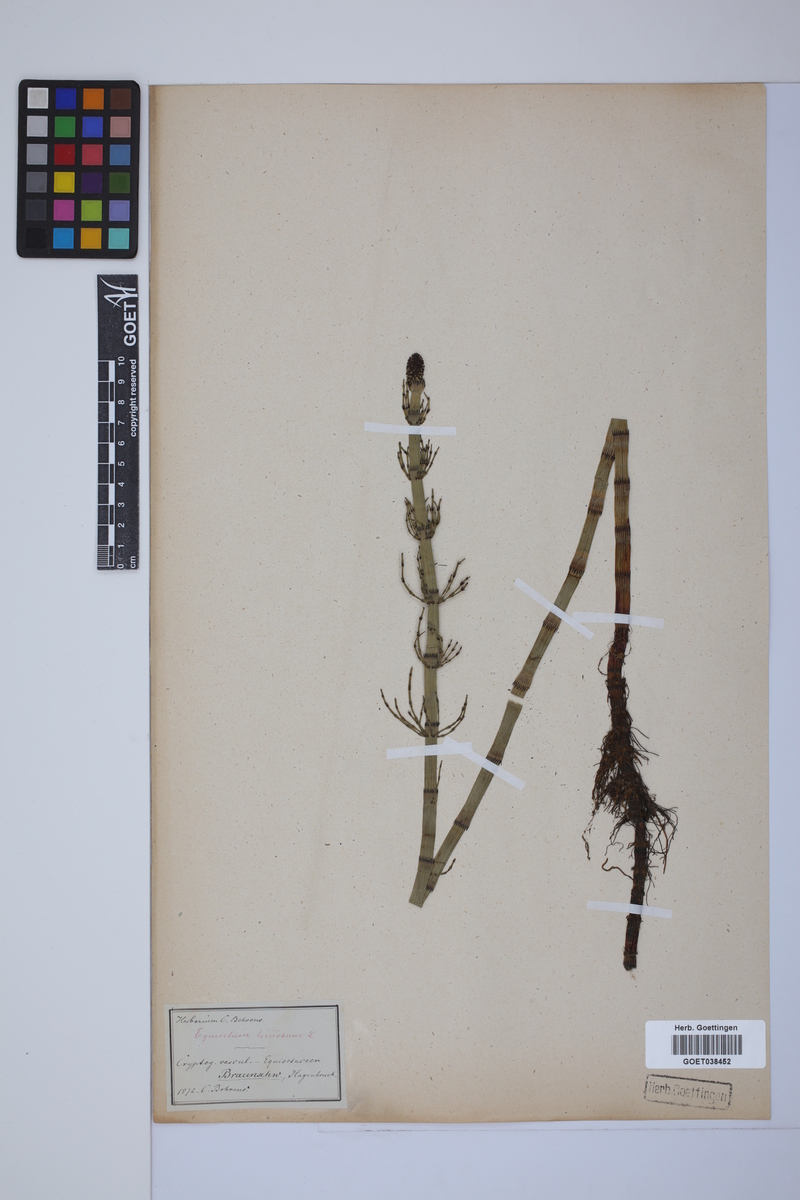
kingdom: Plantae
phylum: Tracheophyta
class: Polypodiopsida
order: Equisetales
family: Equisetaceae
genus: Equisetum
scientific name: Equisetum fluviatile
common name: Water horsetail
